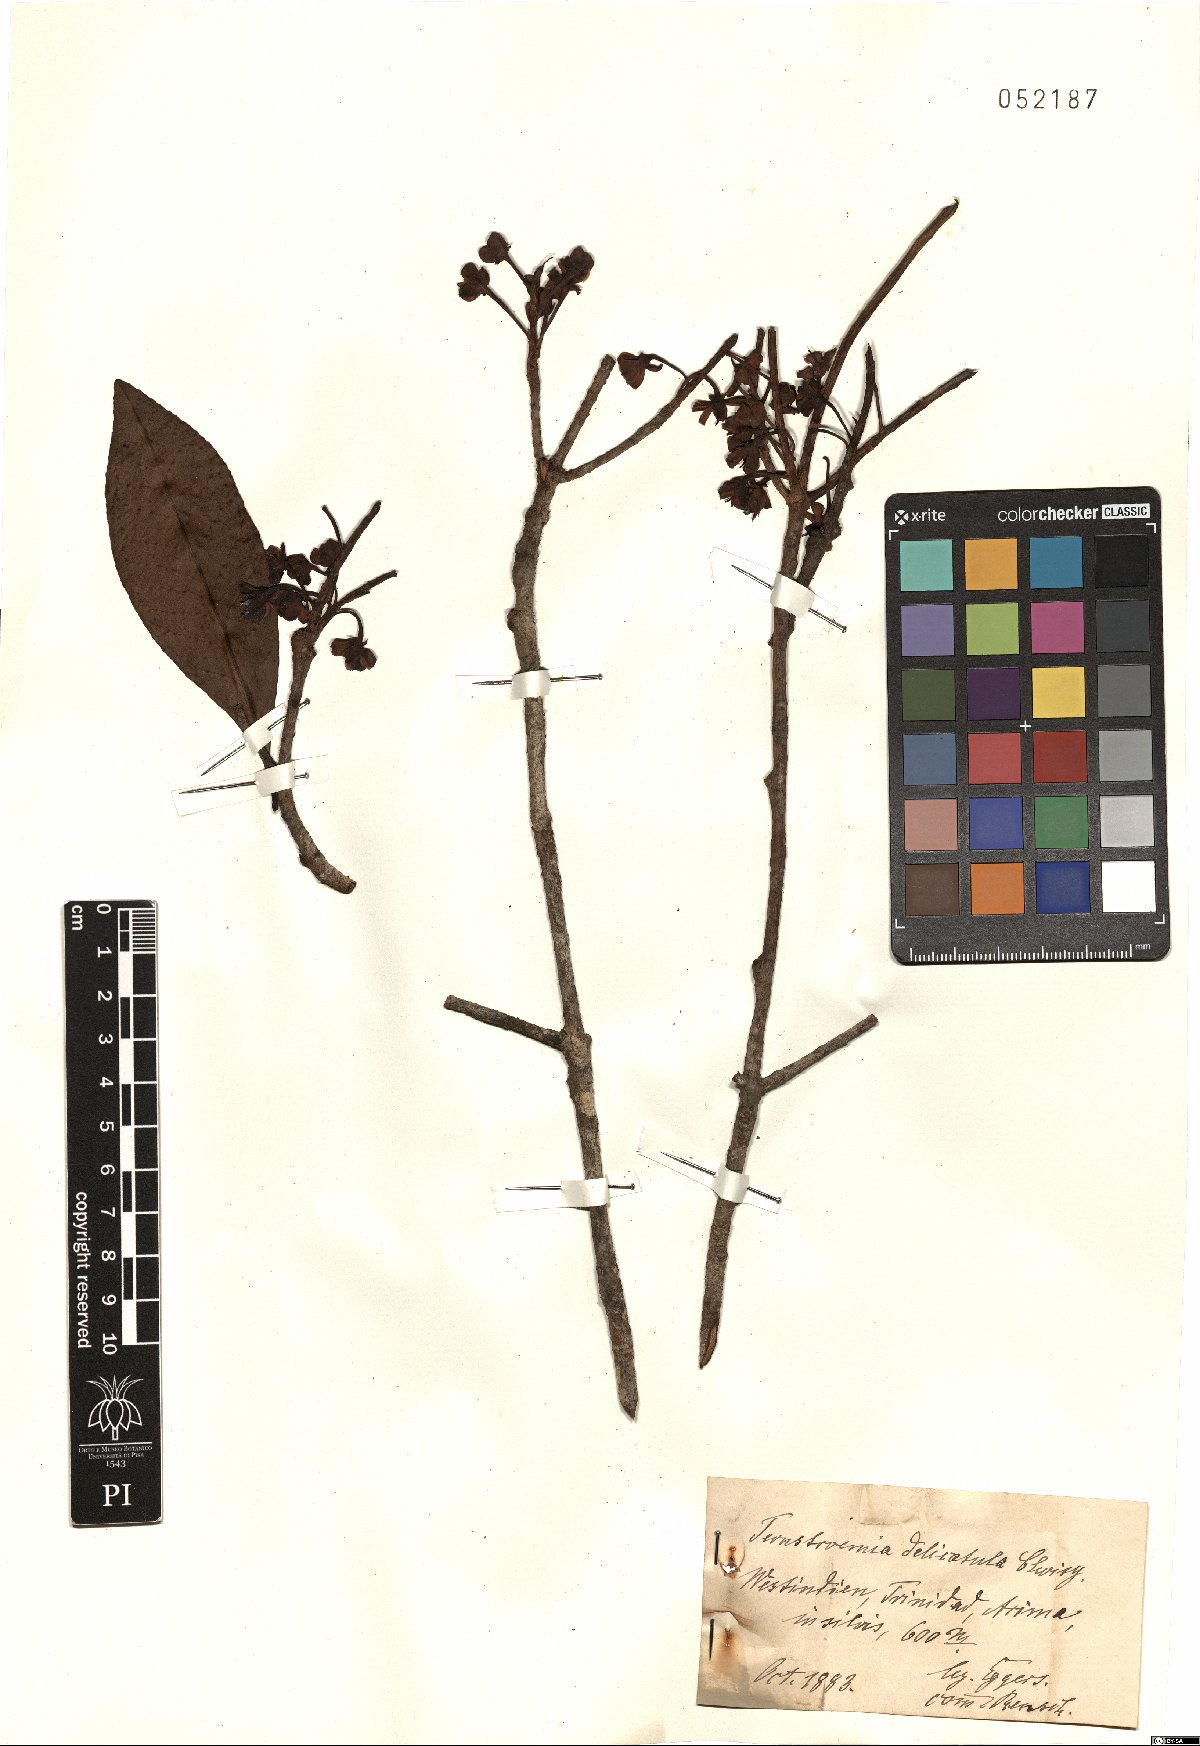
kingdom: Plantae
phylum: Tracheophyta
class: Magnoliopsida
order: Ericales
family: Pentaphylacaceae
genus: Ternstroemia
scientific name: Ternstroemia delicatula
